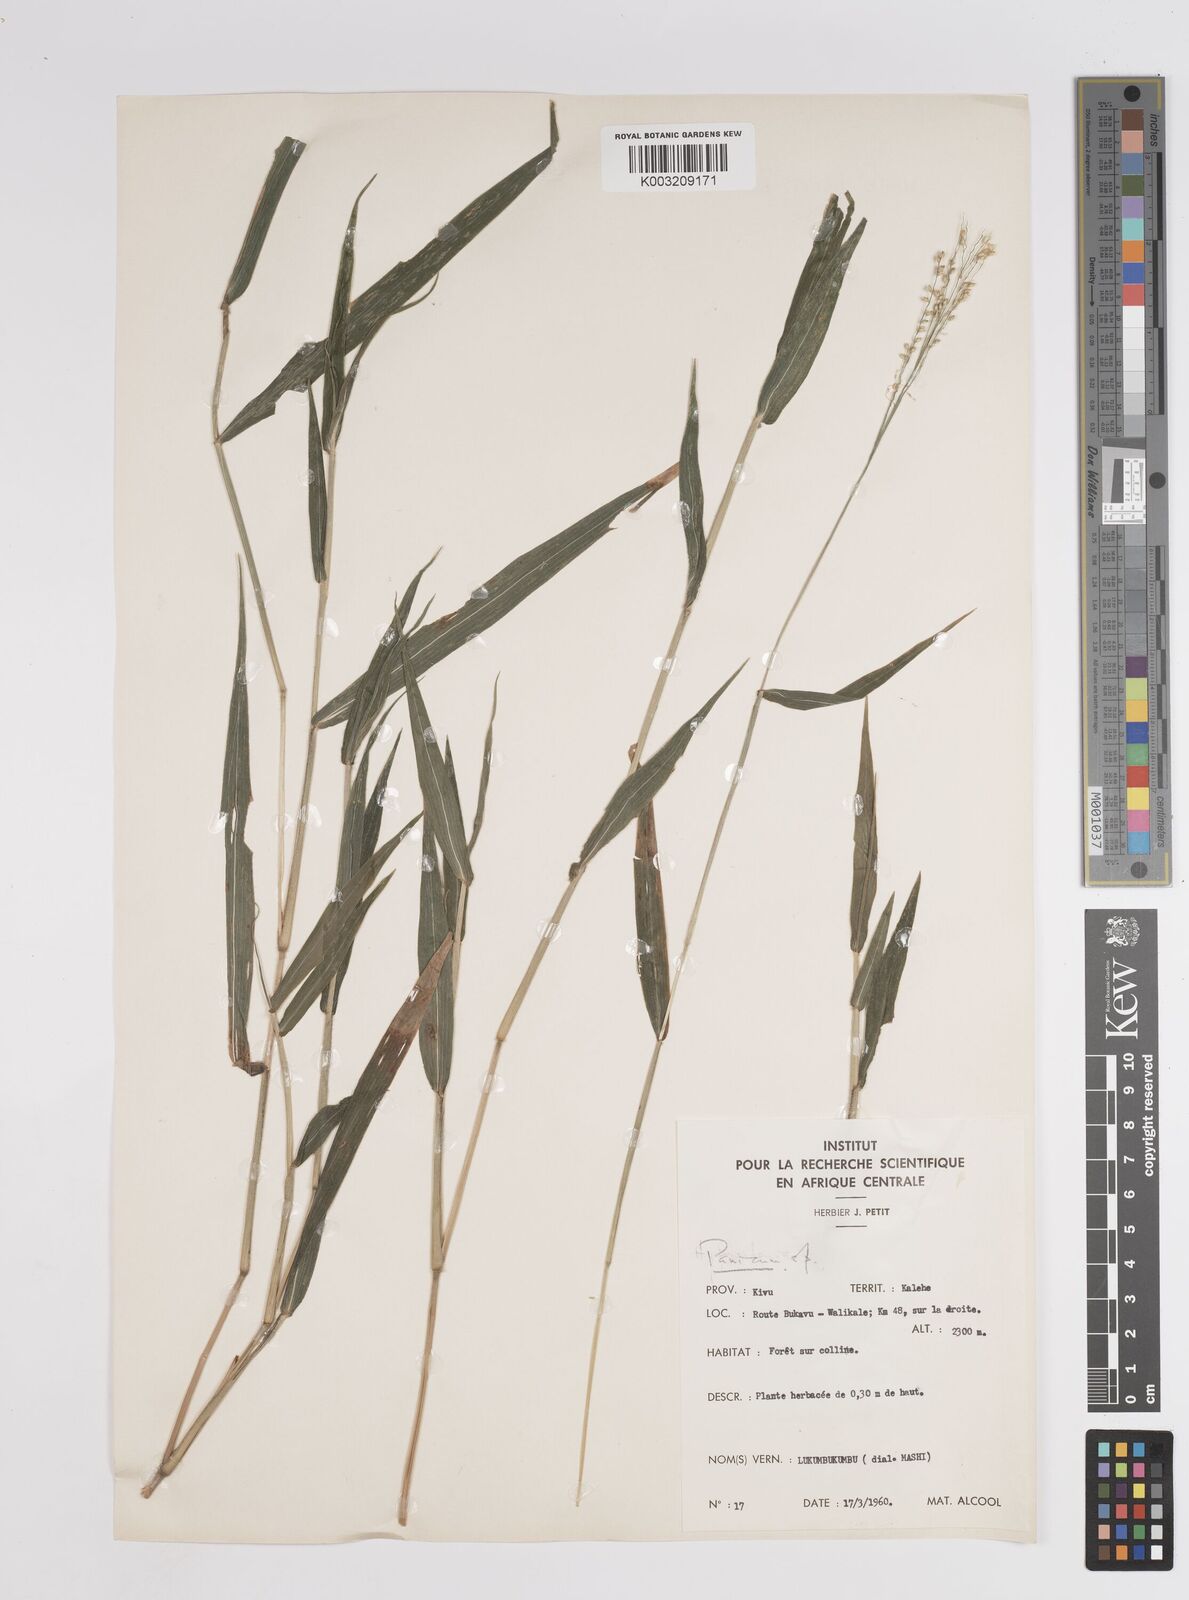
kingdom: Plantae
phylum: Tracheophyta
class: Liliopsida
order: Poales
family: Poaceae
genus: Panicum
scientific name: Panicum
